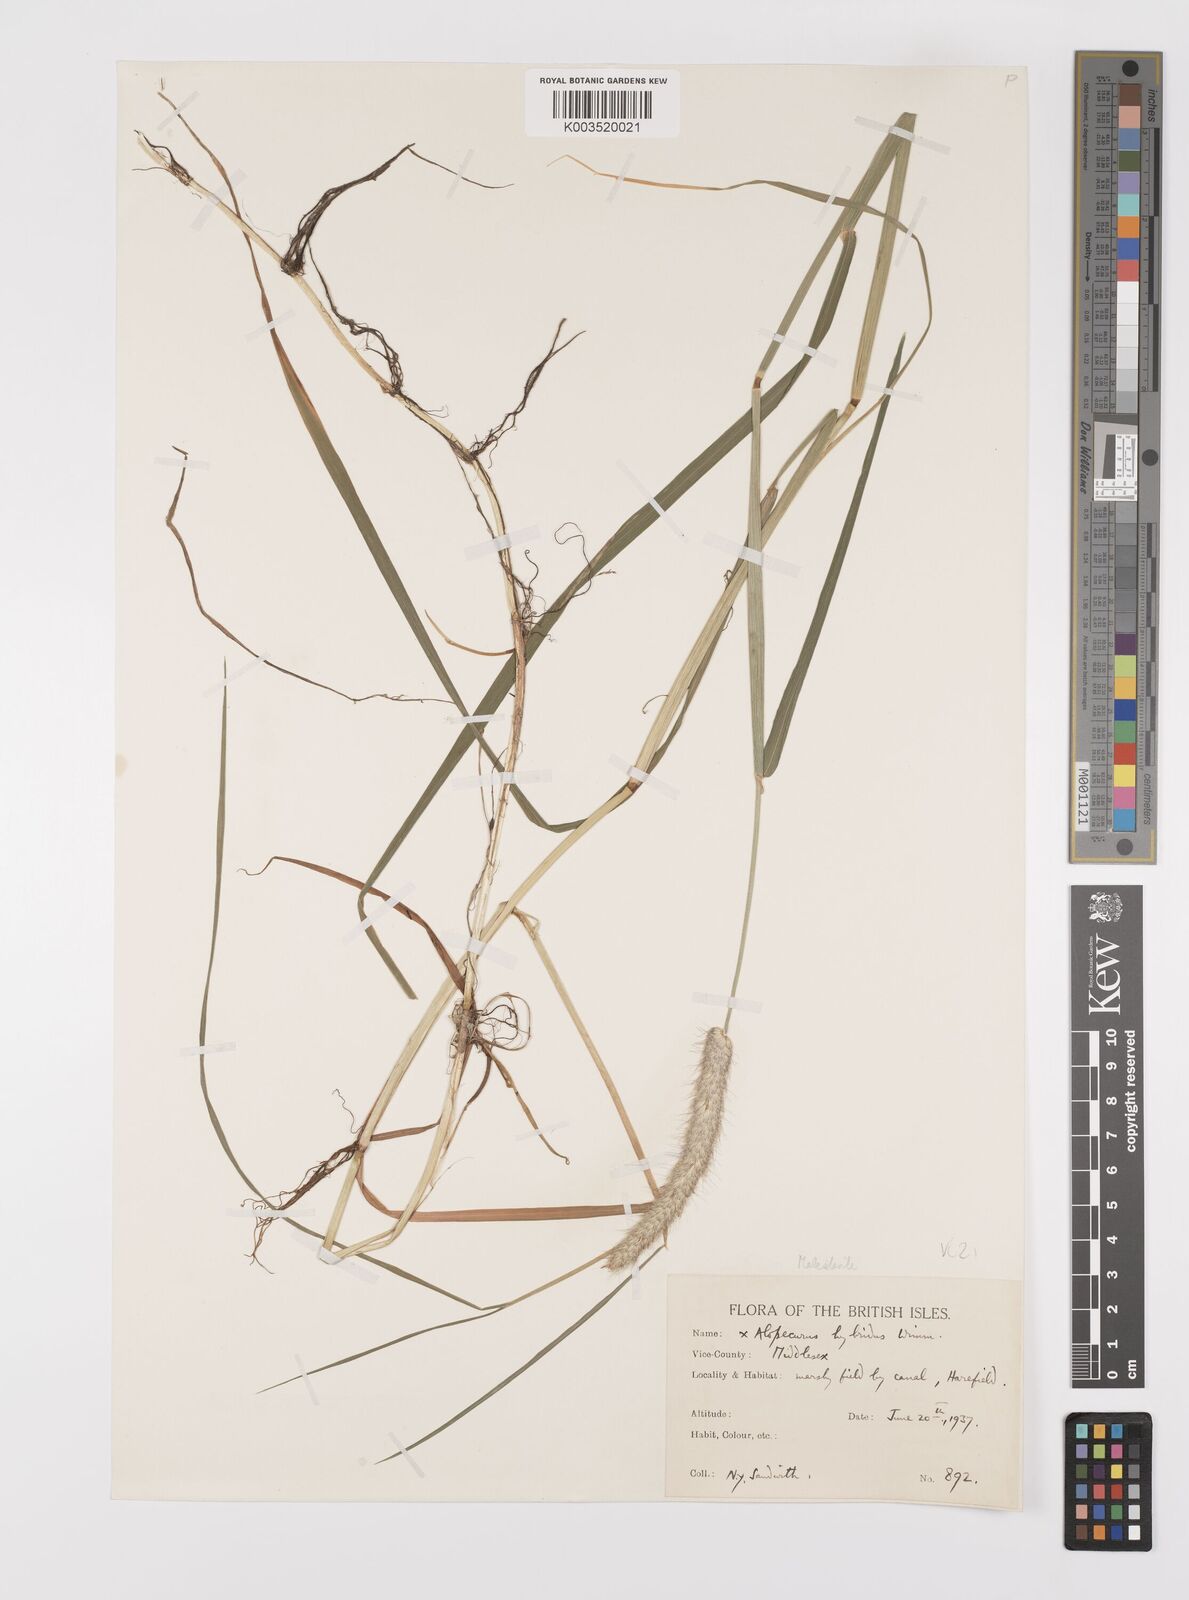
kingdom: Plantae
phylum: Tracheophyta
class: Liliopsida
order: Poales
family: Poaceae
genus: Alopecurus
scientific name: Alopecurus brachystylus
